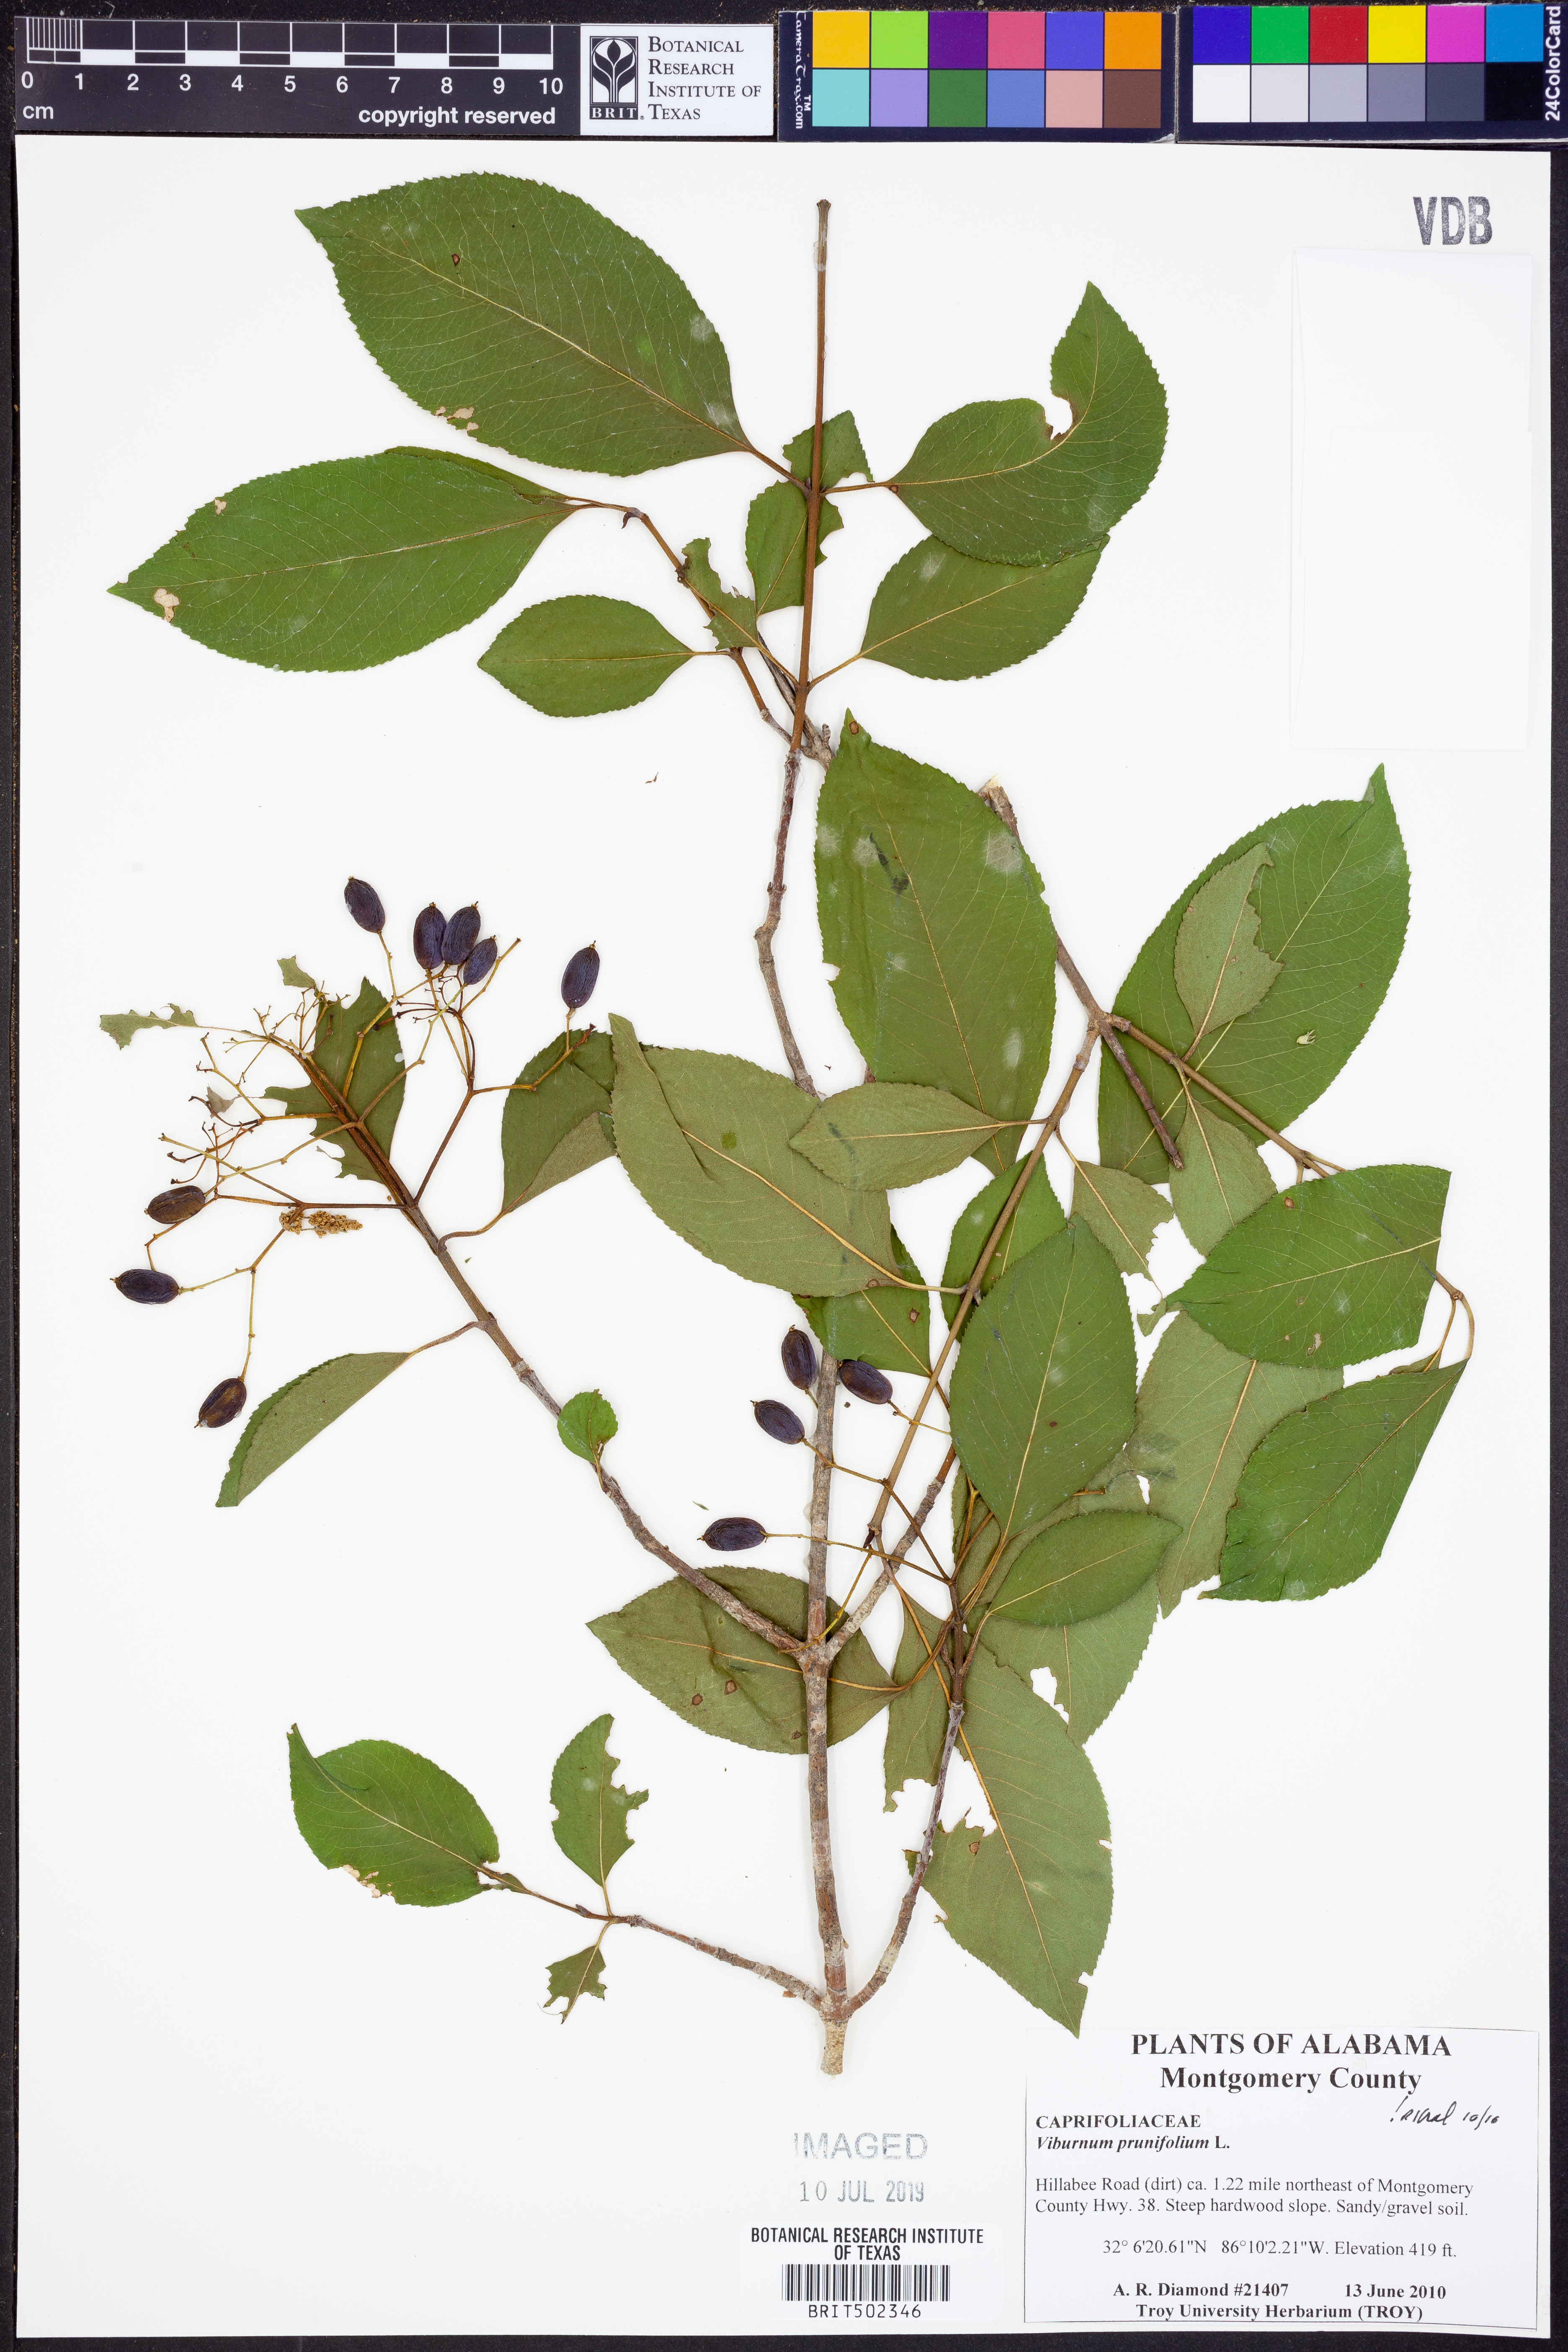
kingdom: Plantae
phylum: Tracheophyta
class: Magnoliopsida
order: Dipsacales
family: Viburnaceae
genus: Viburnum
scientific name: Viburnum prunifolium
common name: Black haw
